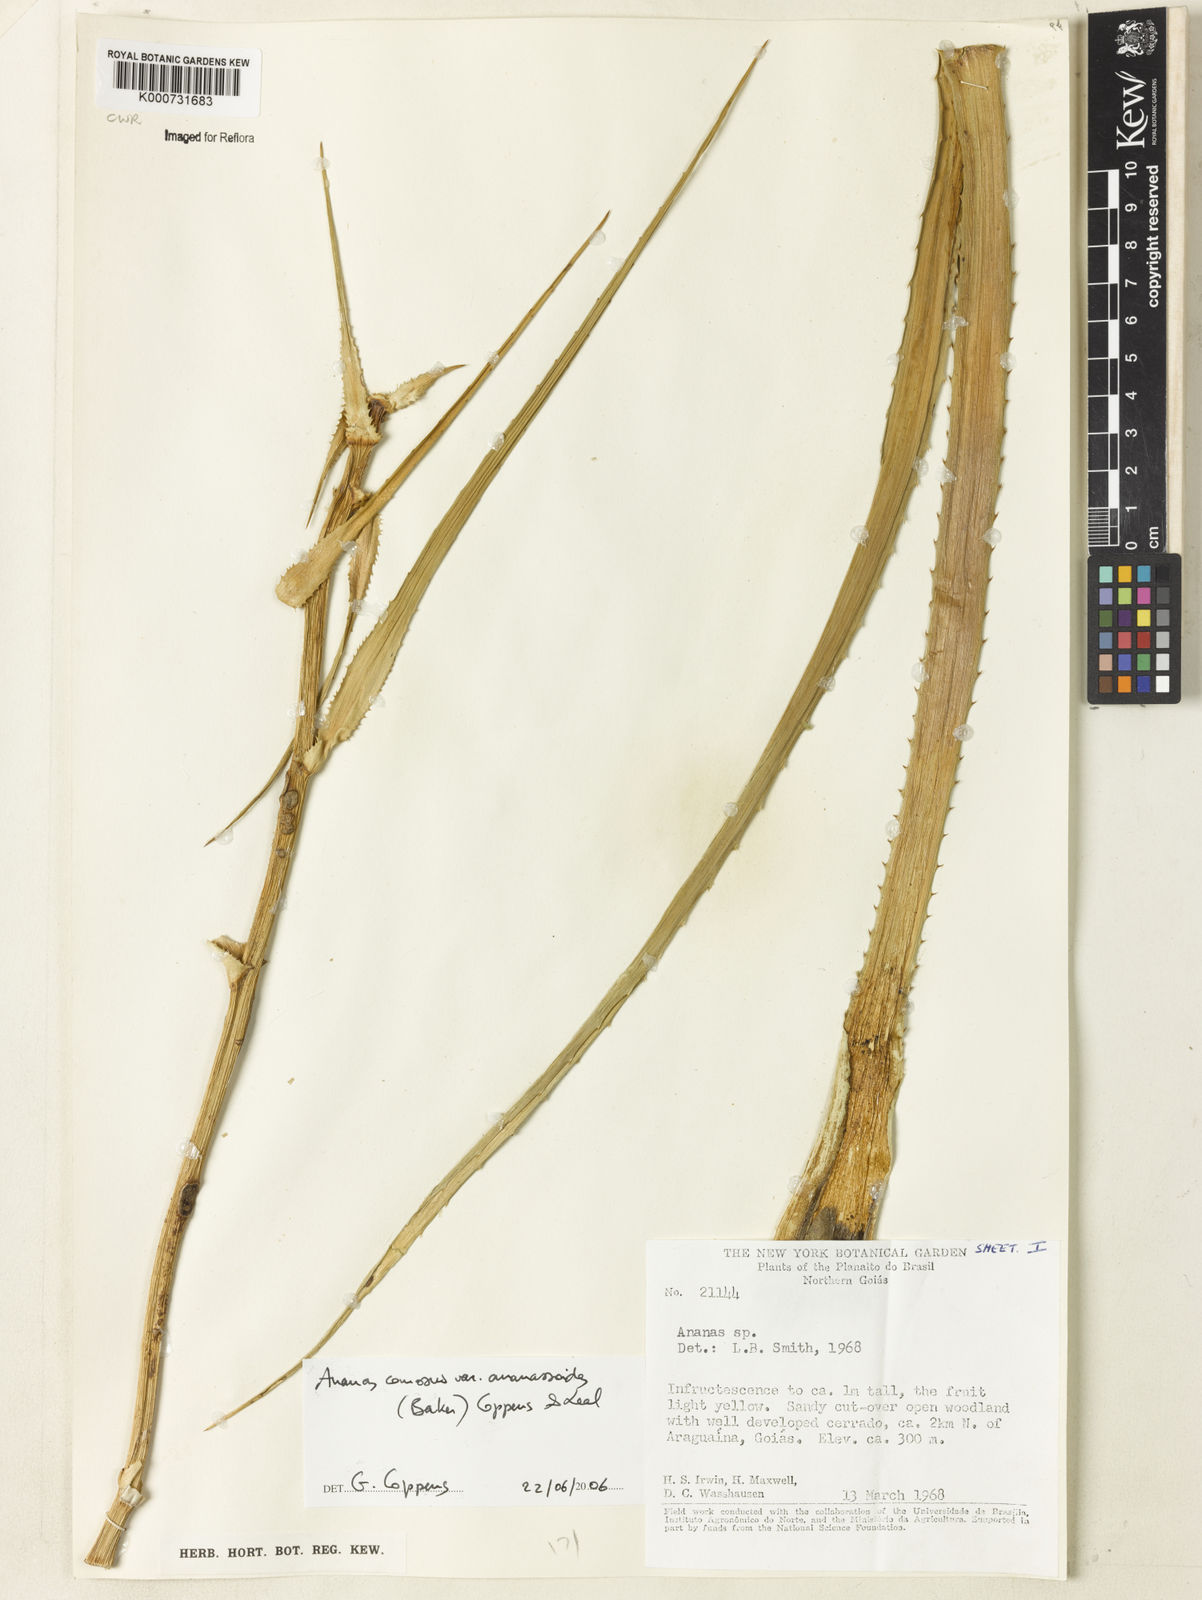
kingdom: Plantae
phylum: Tracheophyta
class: Liliopsida
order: Poales
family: Bromeliaceae
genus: Ananas
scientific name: Ananas
